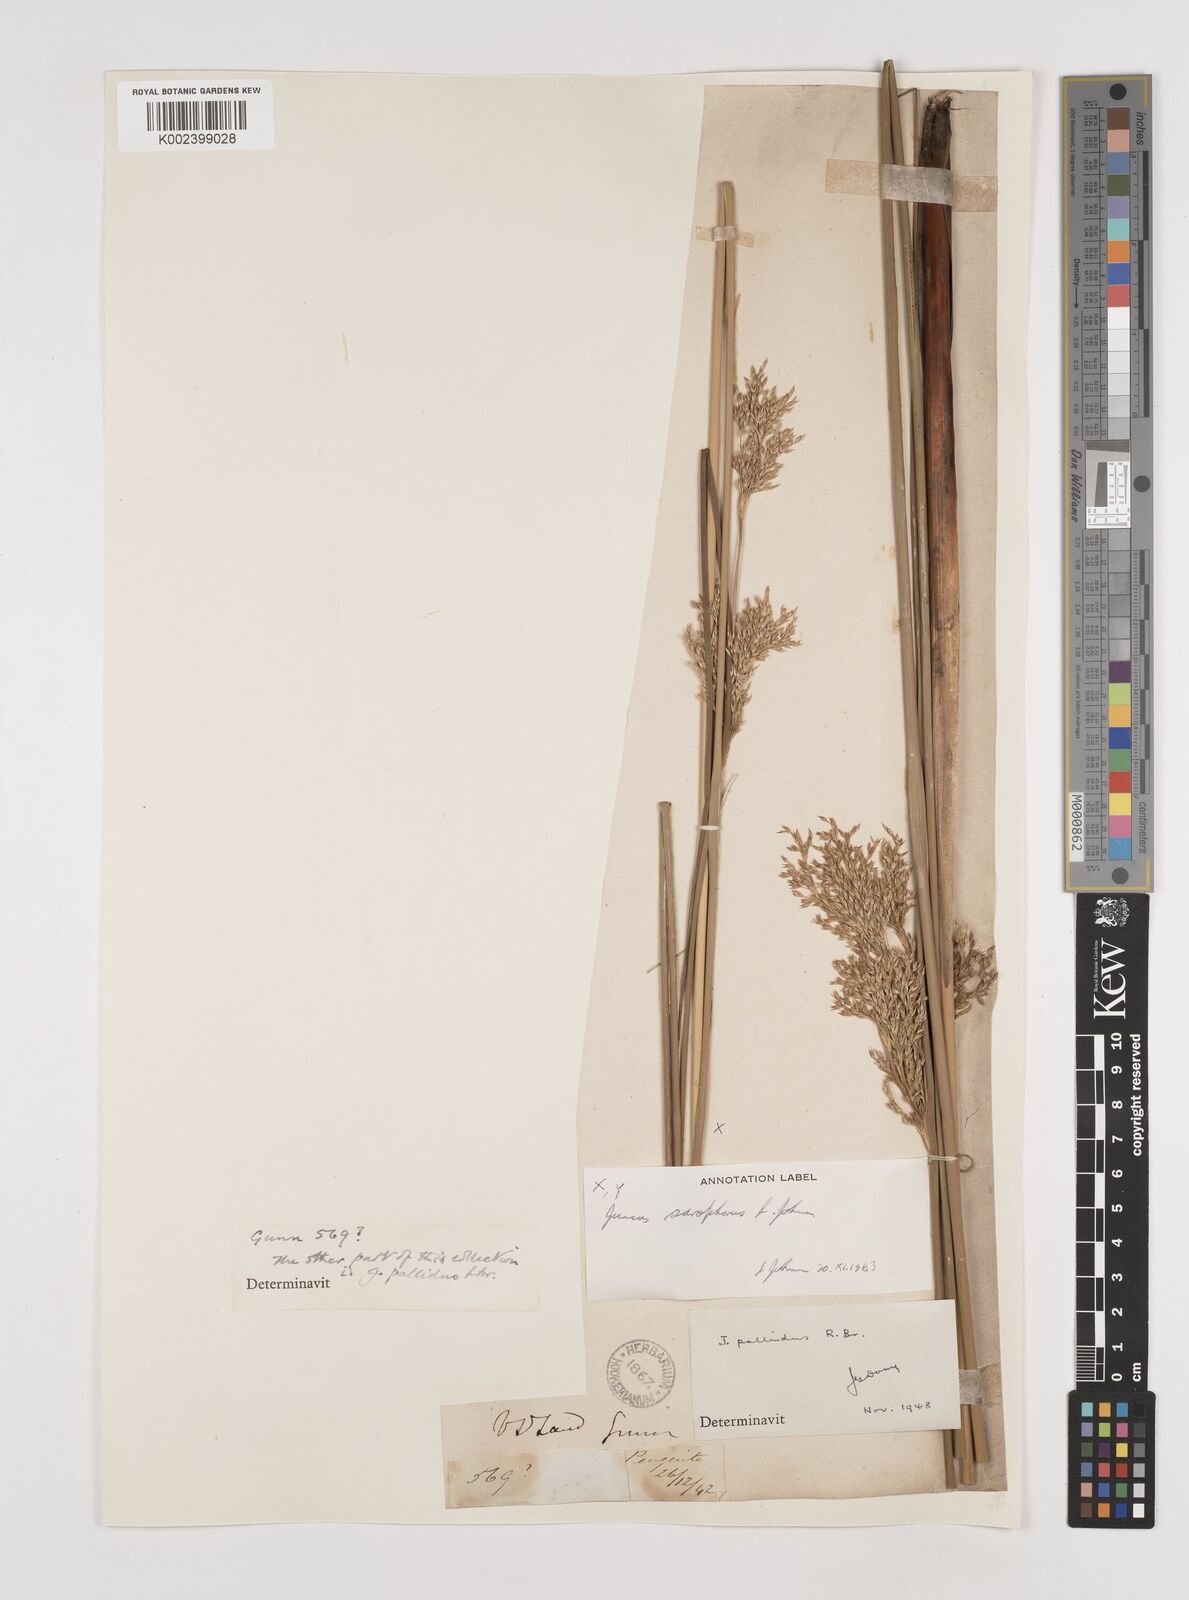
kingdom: Plantae
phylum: Tracheophyta
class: Liliopsida
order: Poales
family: Juncaceae
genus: Juncus
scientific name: Juncus sarophorus
